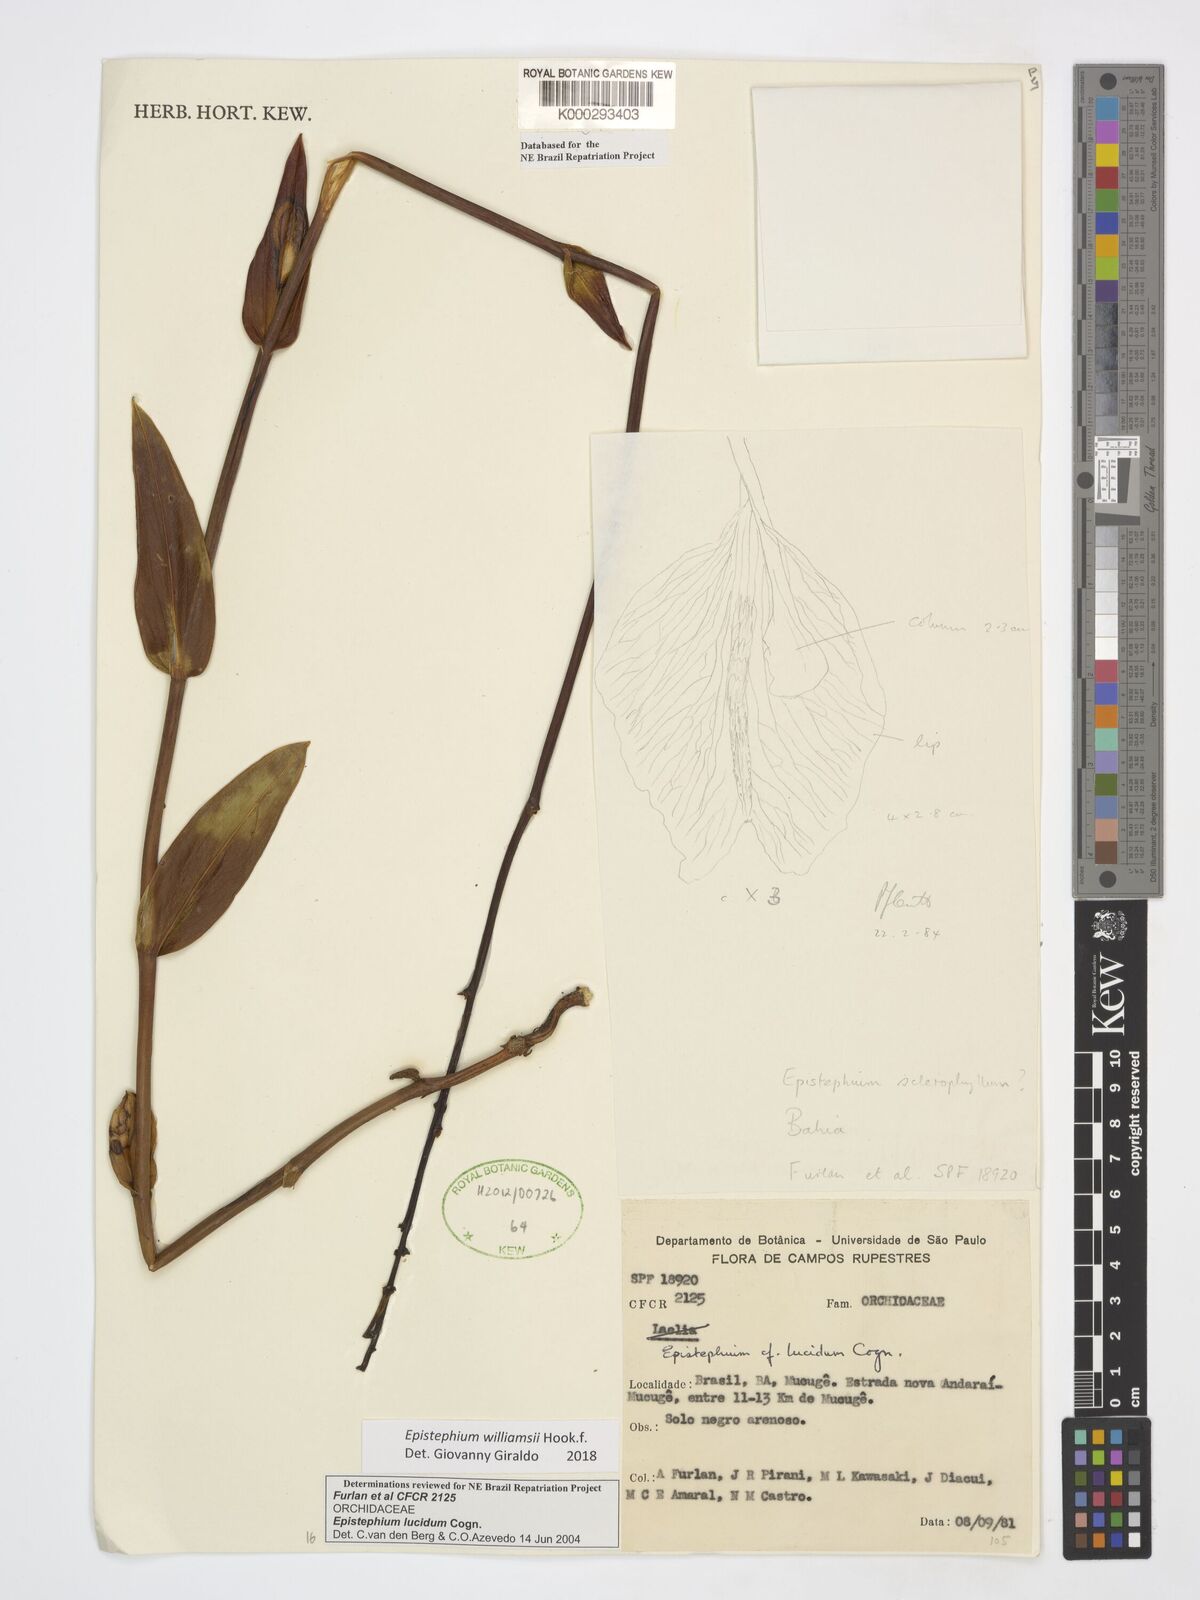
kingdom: Plantae
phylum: Tracheophyta
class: Liliopsida
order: Asparagales
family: Orchidaceae
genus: Epistephium
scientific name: Epistephium williamsii
